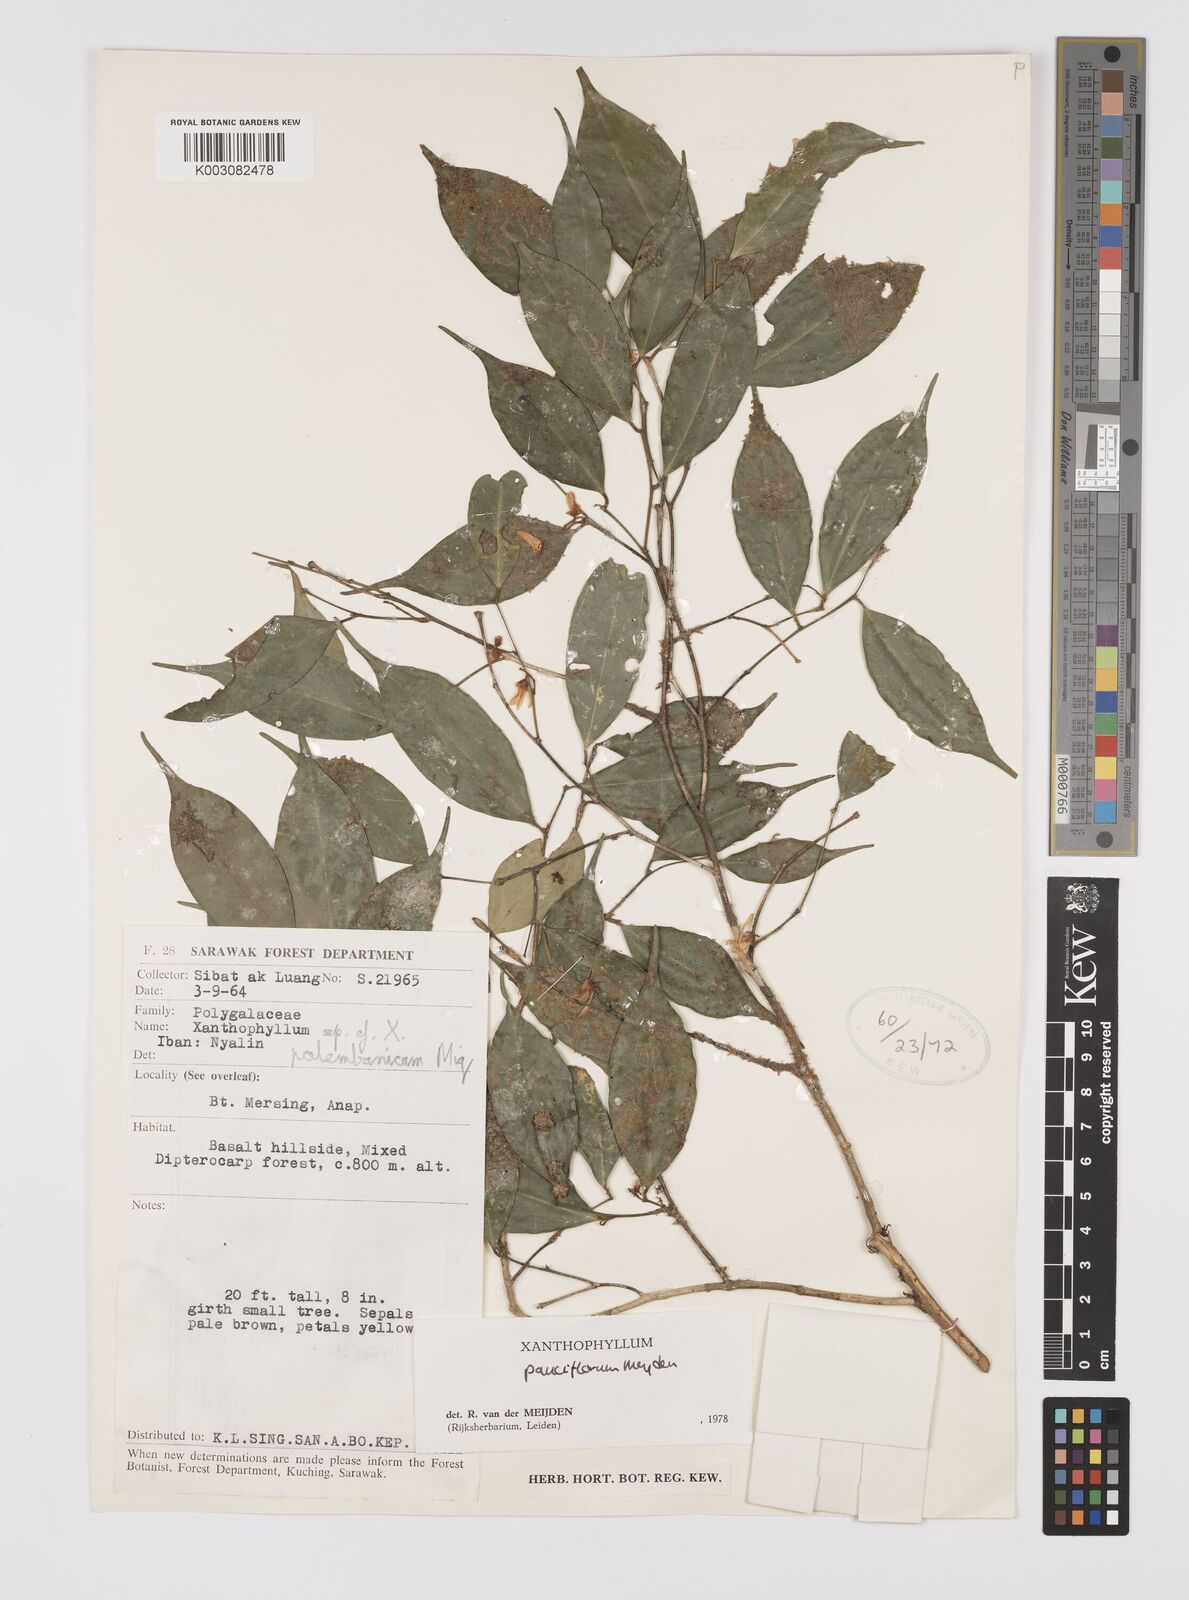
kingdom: Plantae
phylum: Tracheophyta
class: Magnoliopsida
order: Fabales
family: Polygalaceae
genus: Xanthophyllum
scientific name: Xanthophyllum pauciflorum
